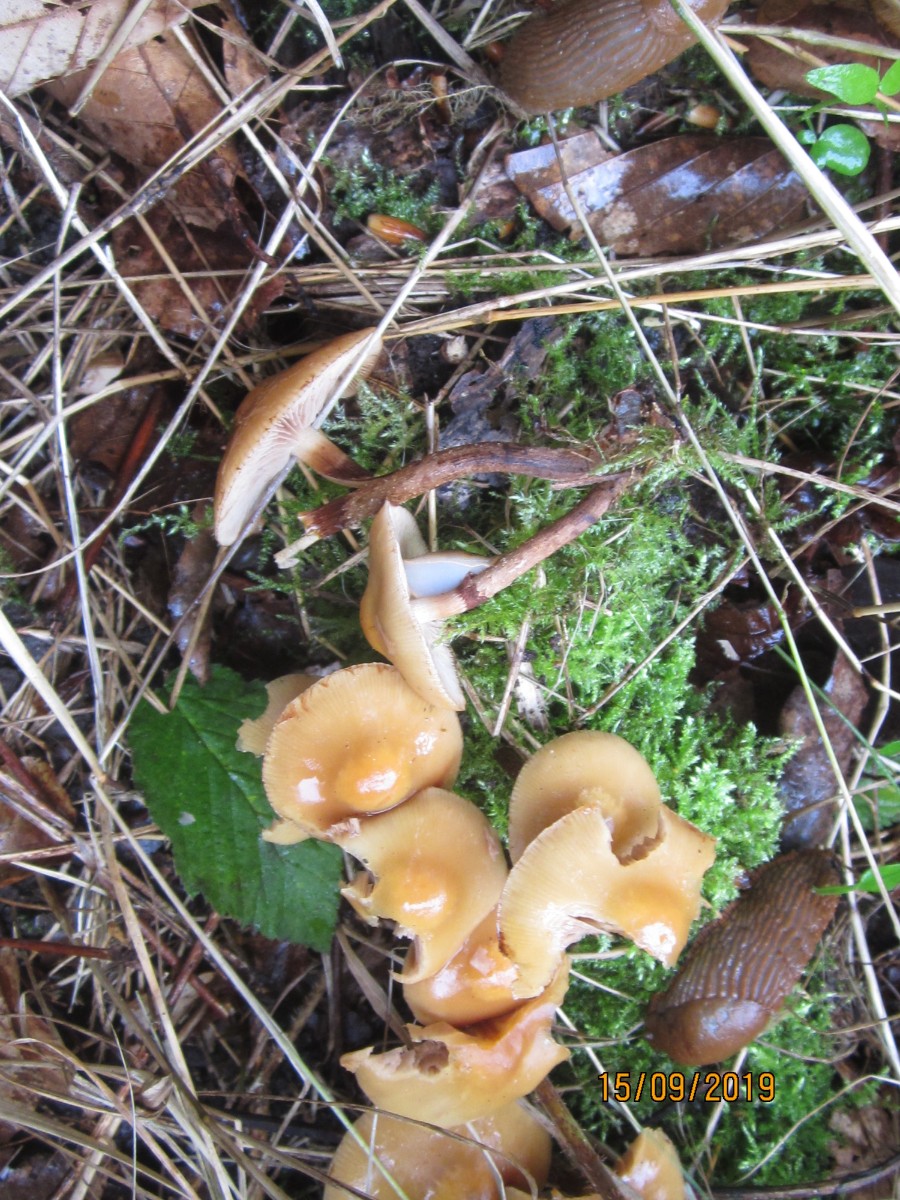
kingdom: Fungi
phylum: Basidiomycota
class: Agaricomycetes
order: Agaricales
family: Strophariaceae
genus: Kuehneromyces
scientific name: Kuehneromyces mutabilis
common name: foranderlig skælhat
